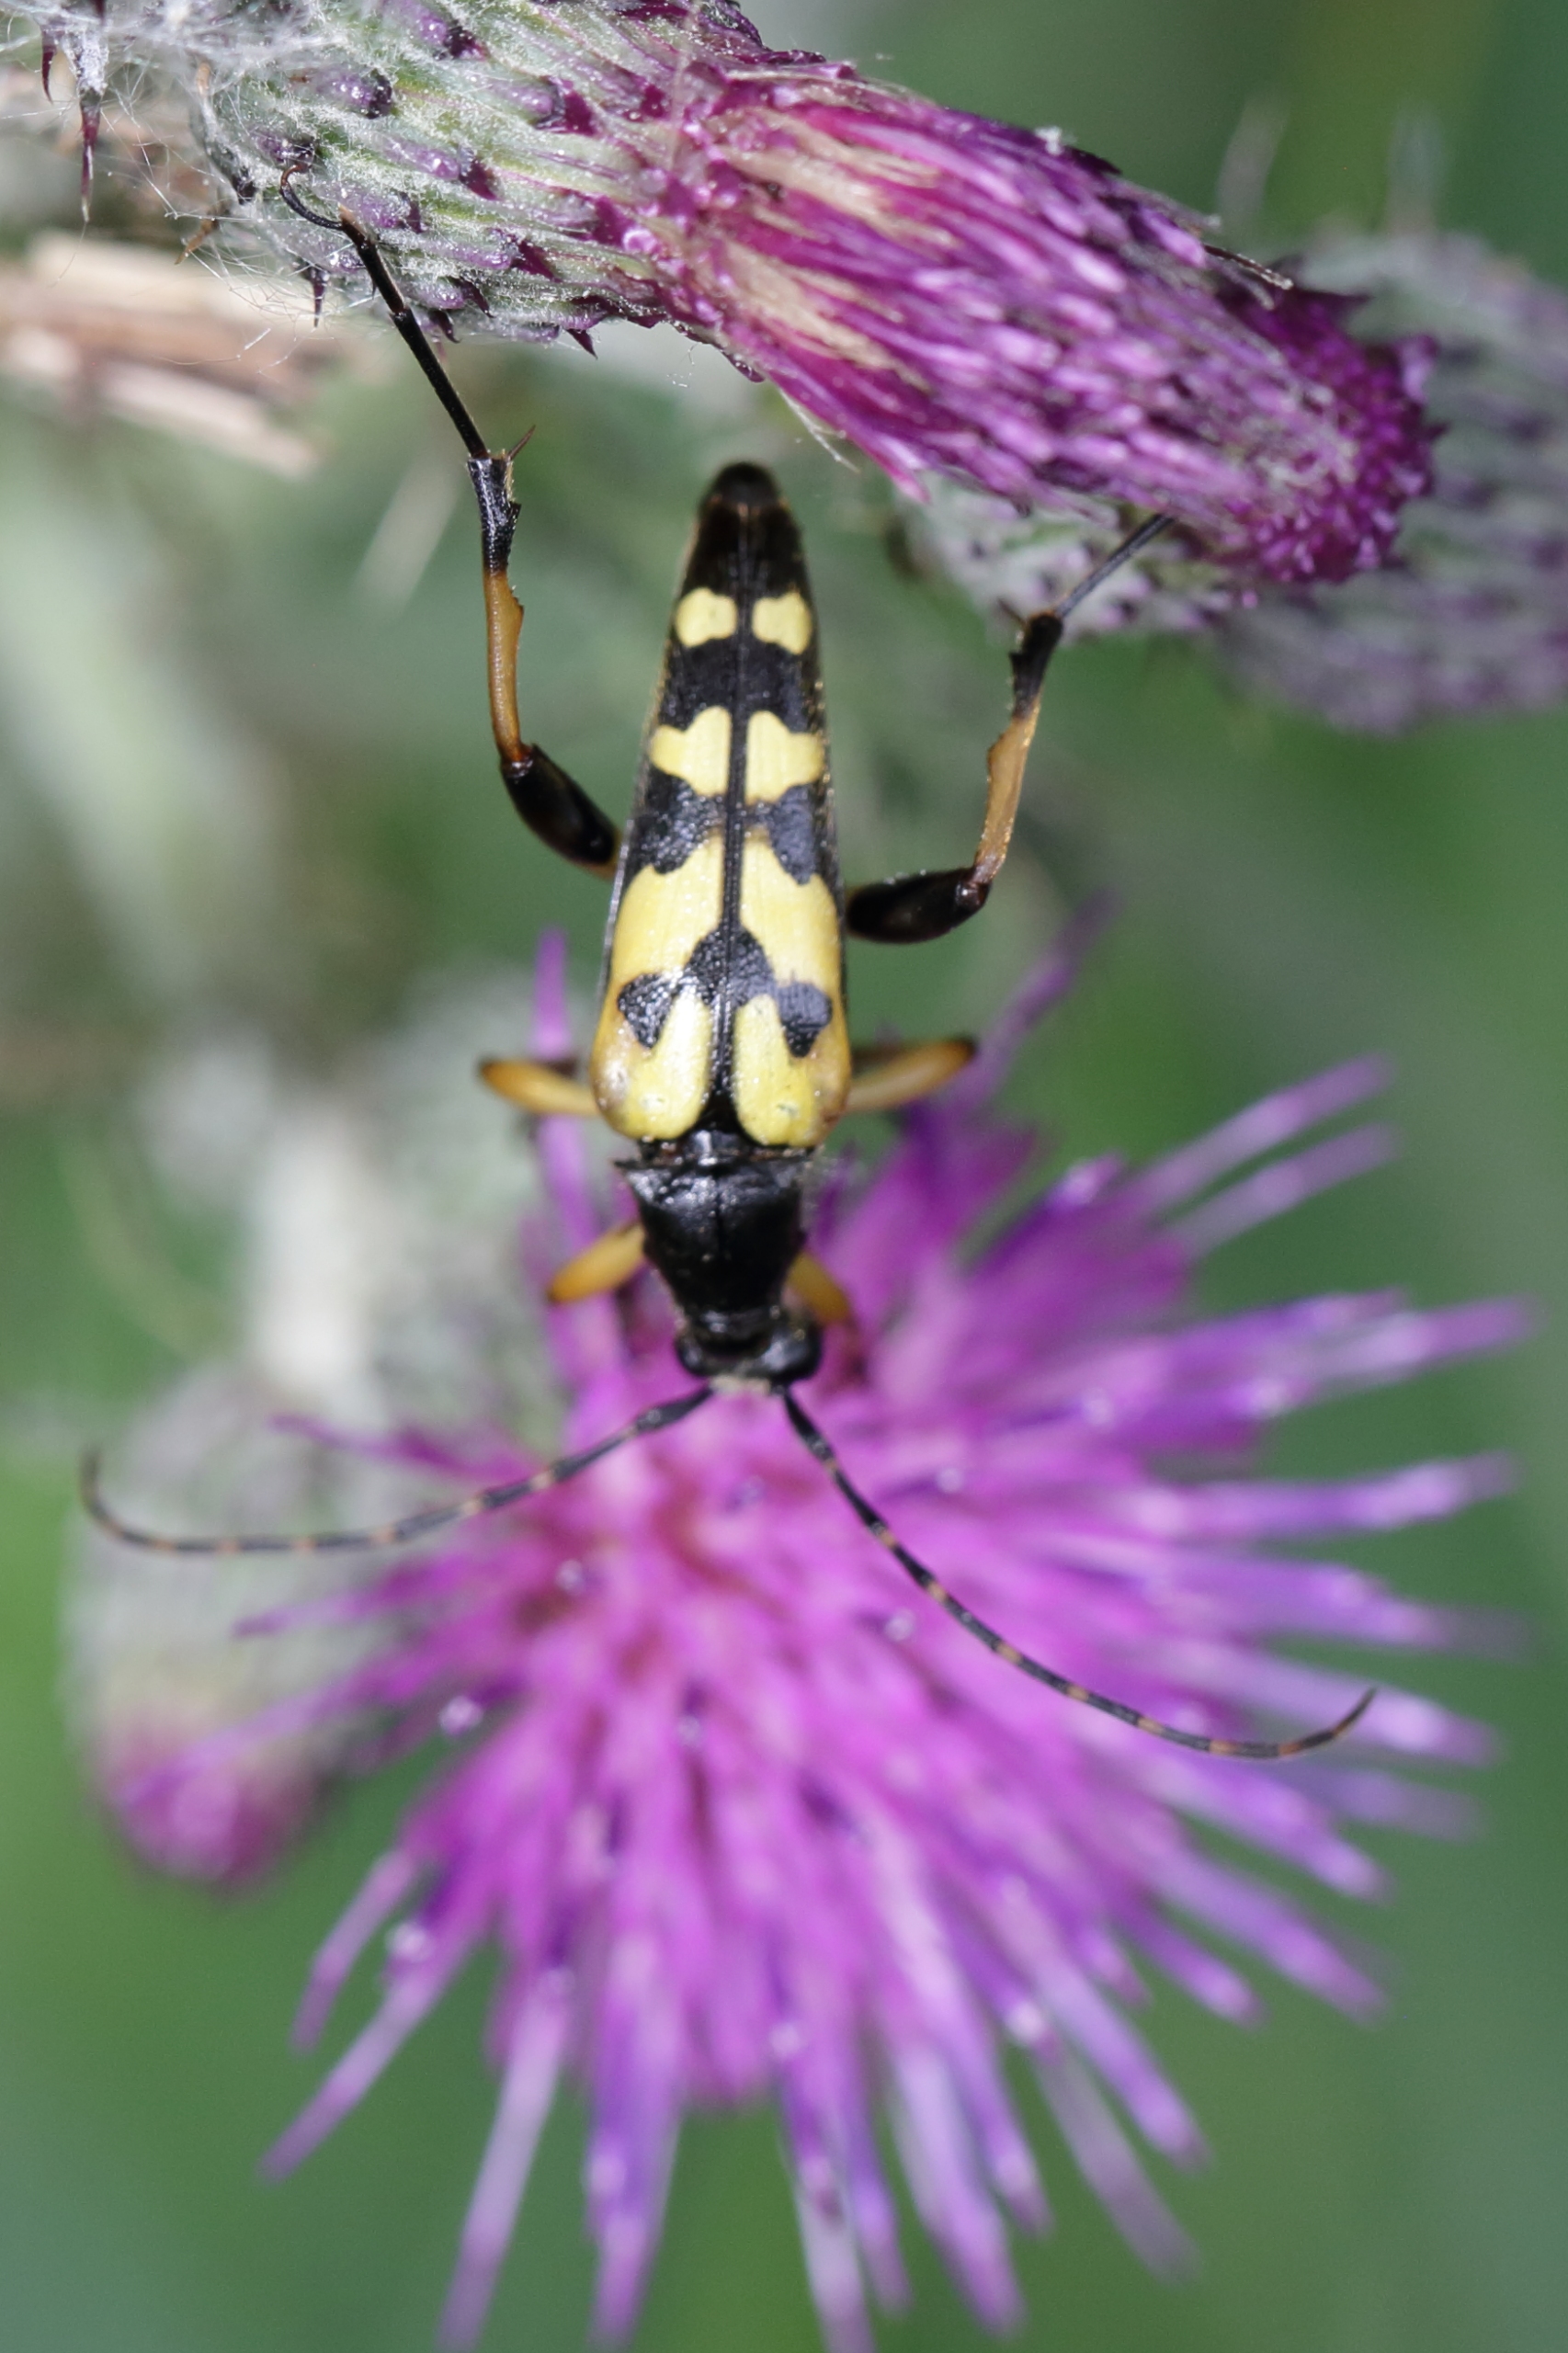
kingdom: Animalia
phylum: Arthropoda
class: Insecta
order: Coleoptera
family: Cerambycidae
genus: Rutpela
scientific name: Rutpela maculata
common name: Sydlig blomsterbuk
